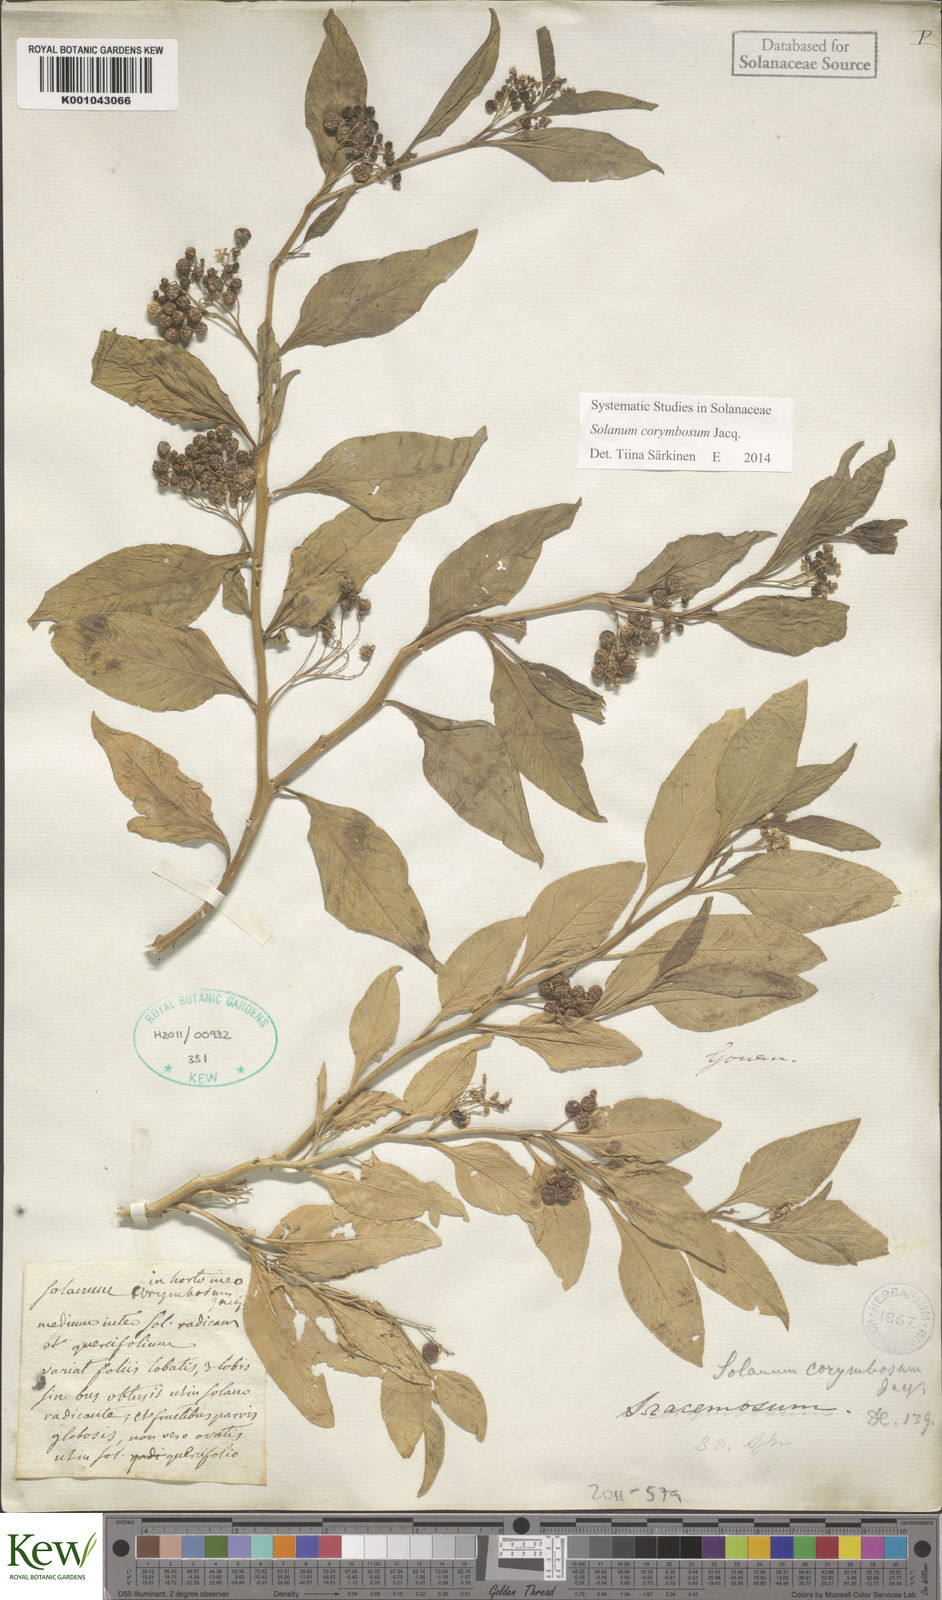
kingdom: Plantae
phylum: Tracheophyta
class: Magnoliopsida
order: Solanales
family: Solanaceae
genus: Solanum
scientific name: Solanum corymbosum
